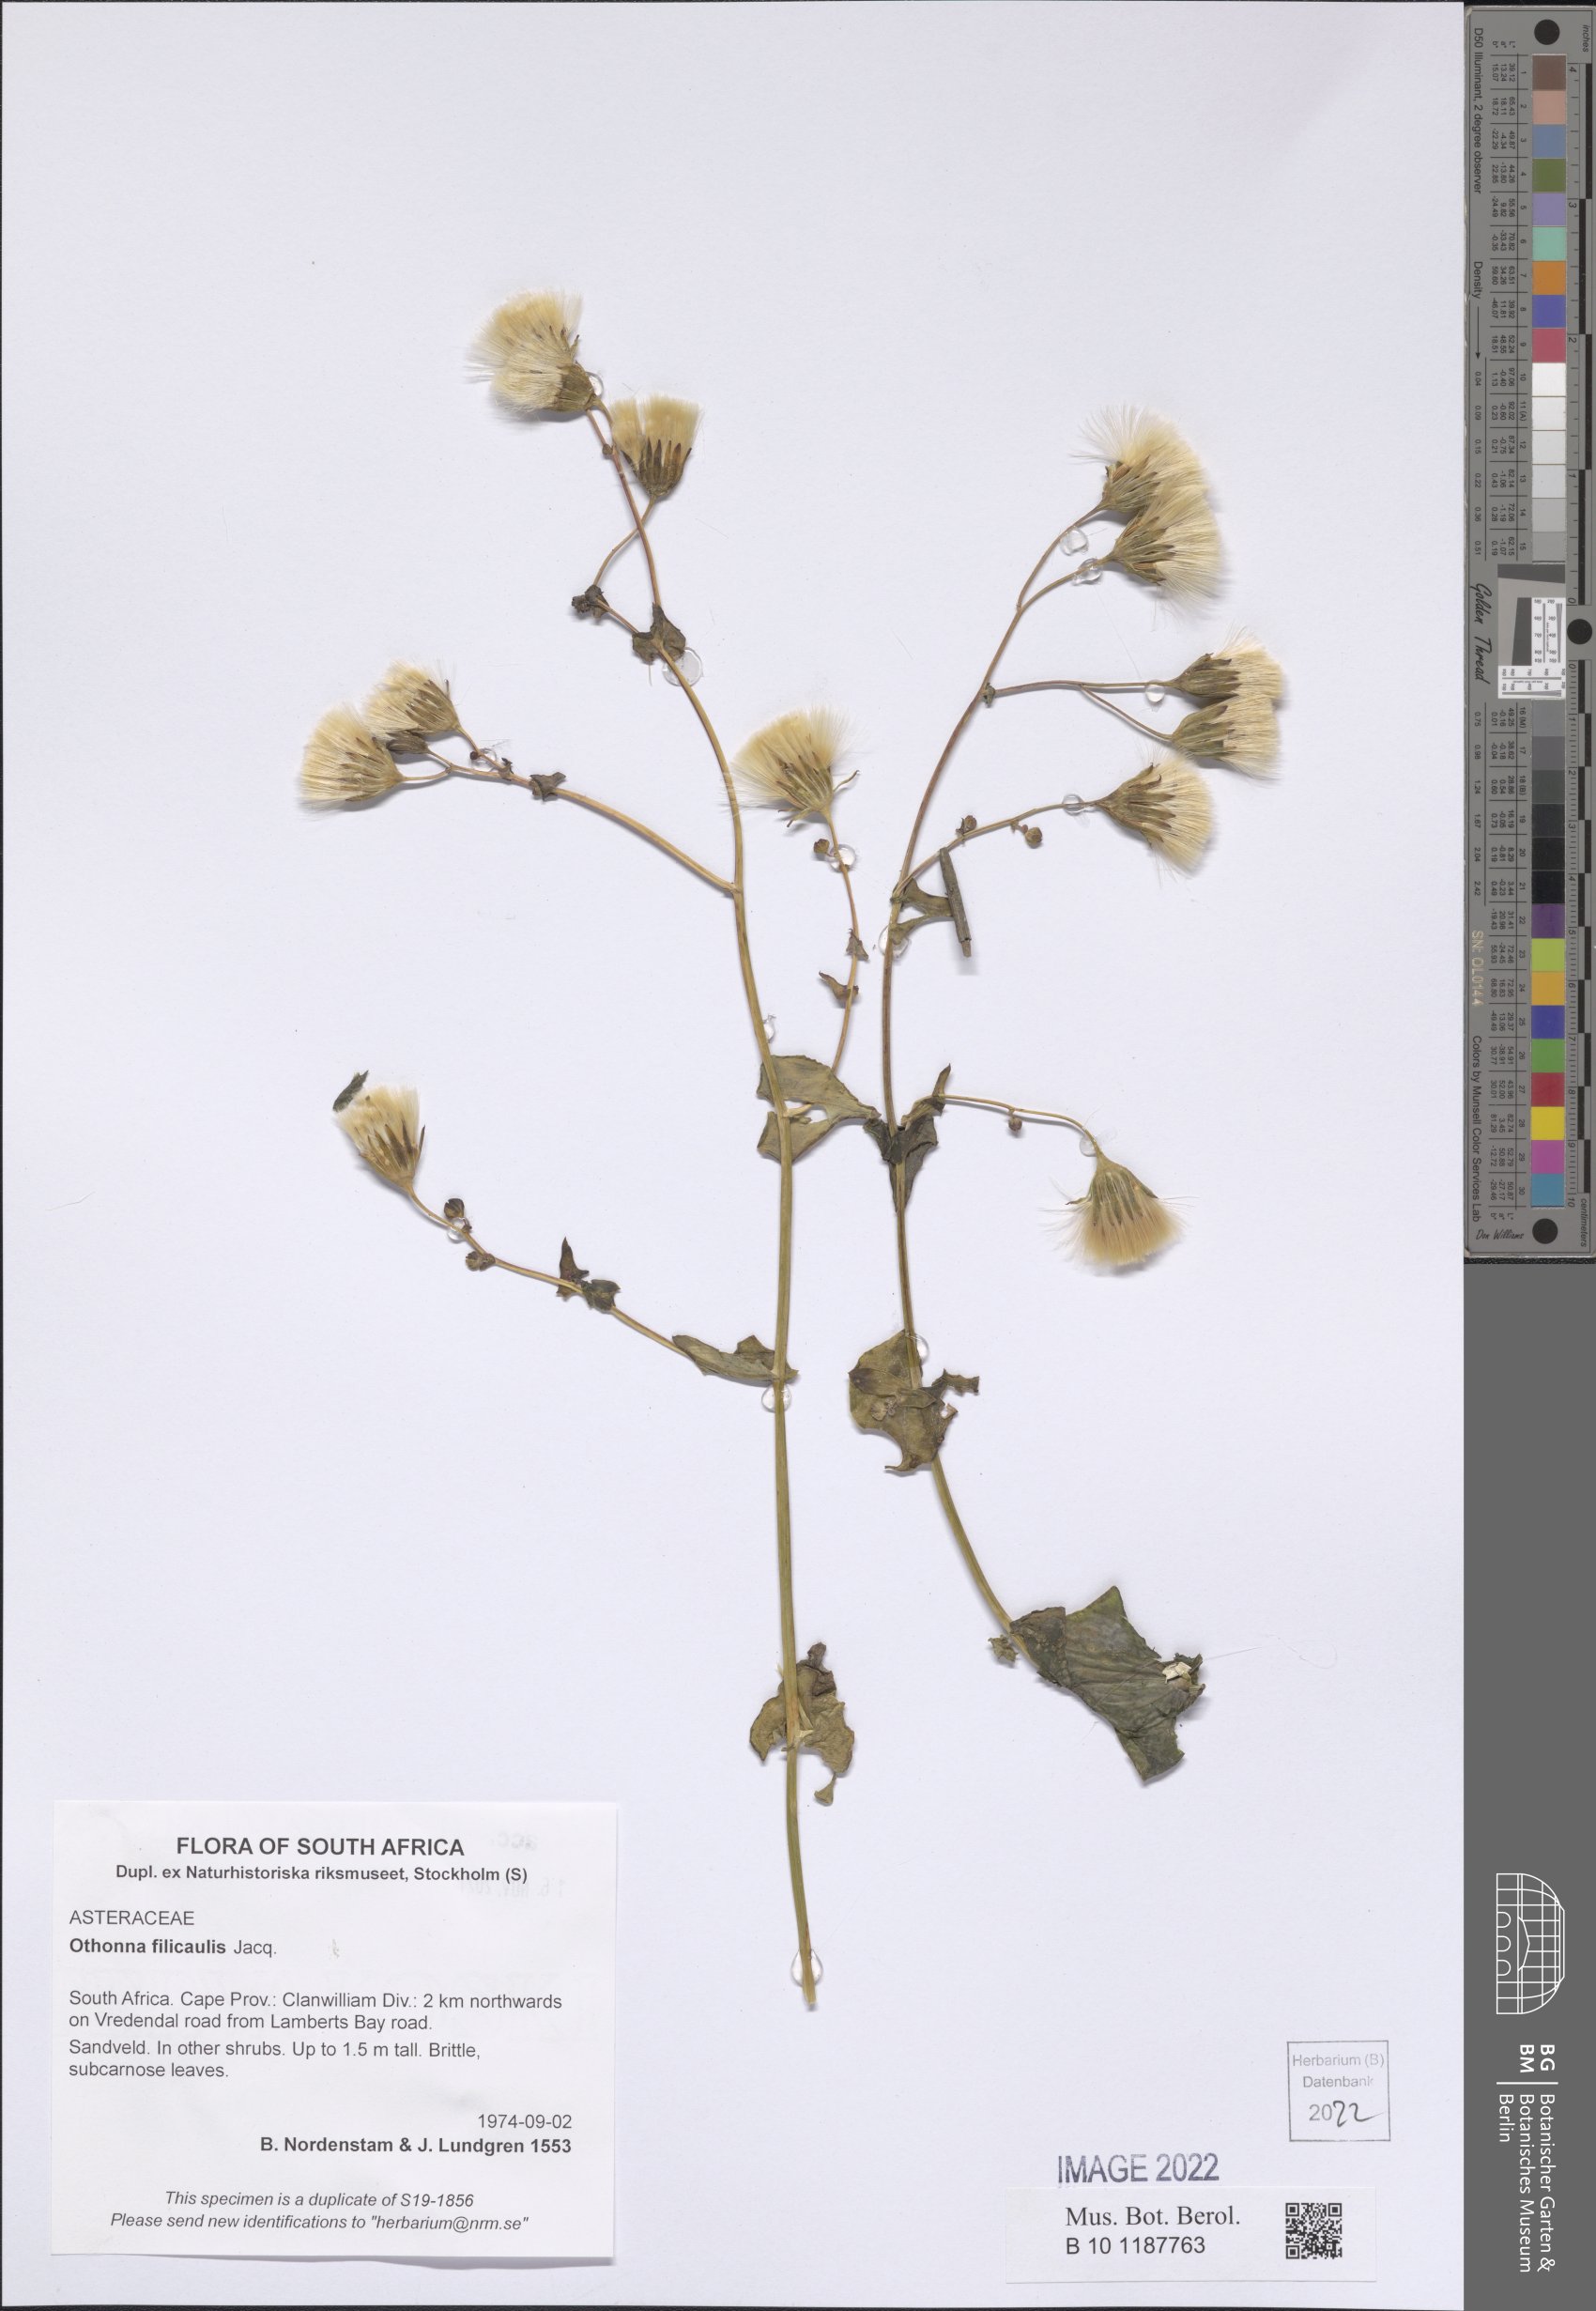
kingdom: Plantae
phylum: Tracheophyta
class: Magnoliopsida
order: Asterales
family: Asteraceae
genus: Othonna
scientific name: Othonna perfoliata
